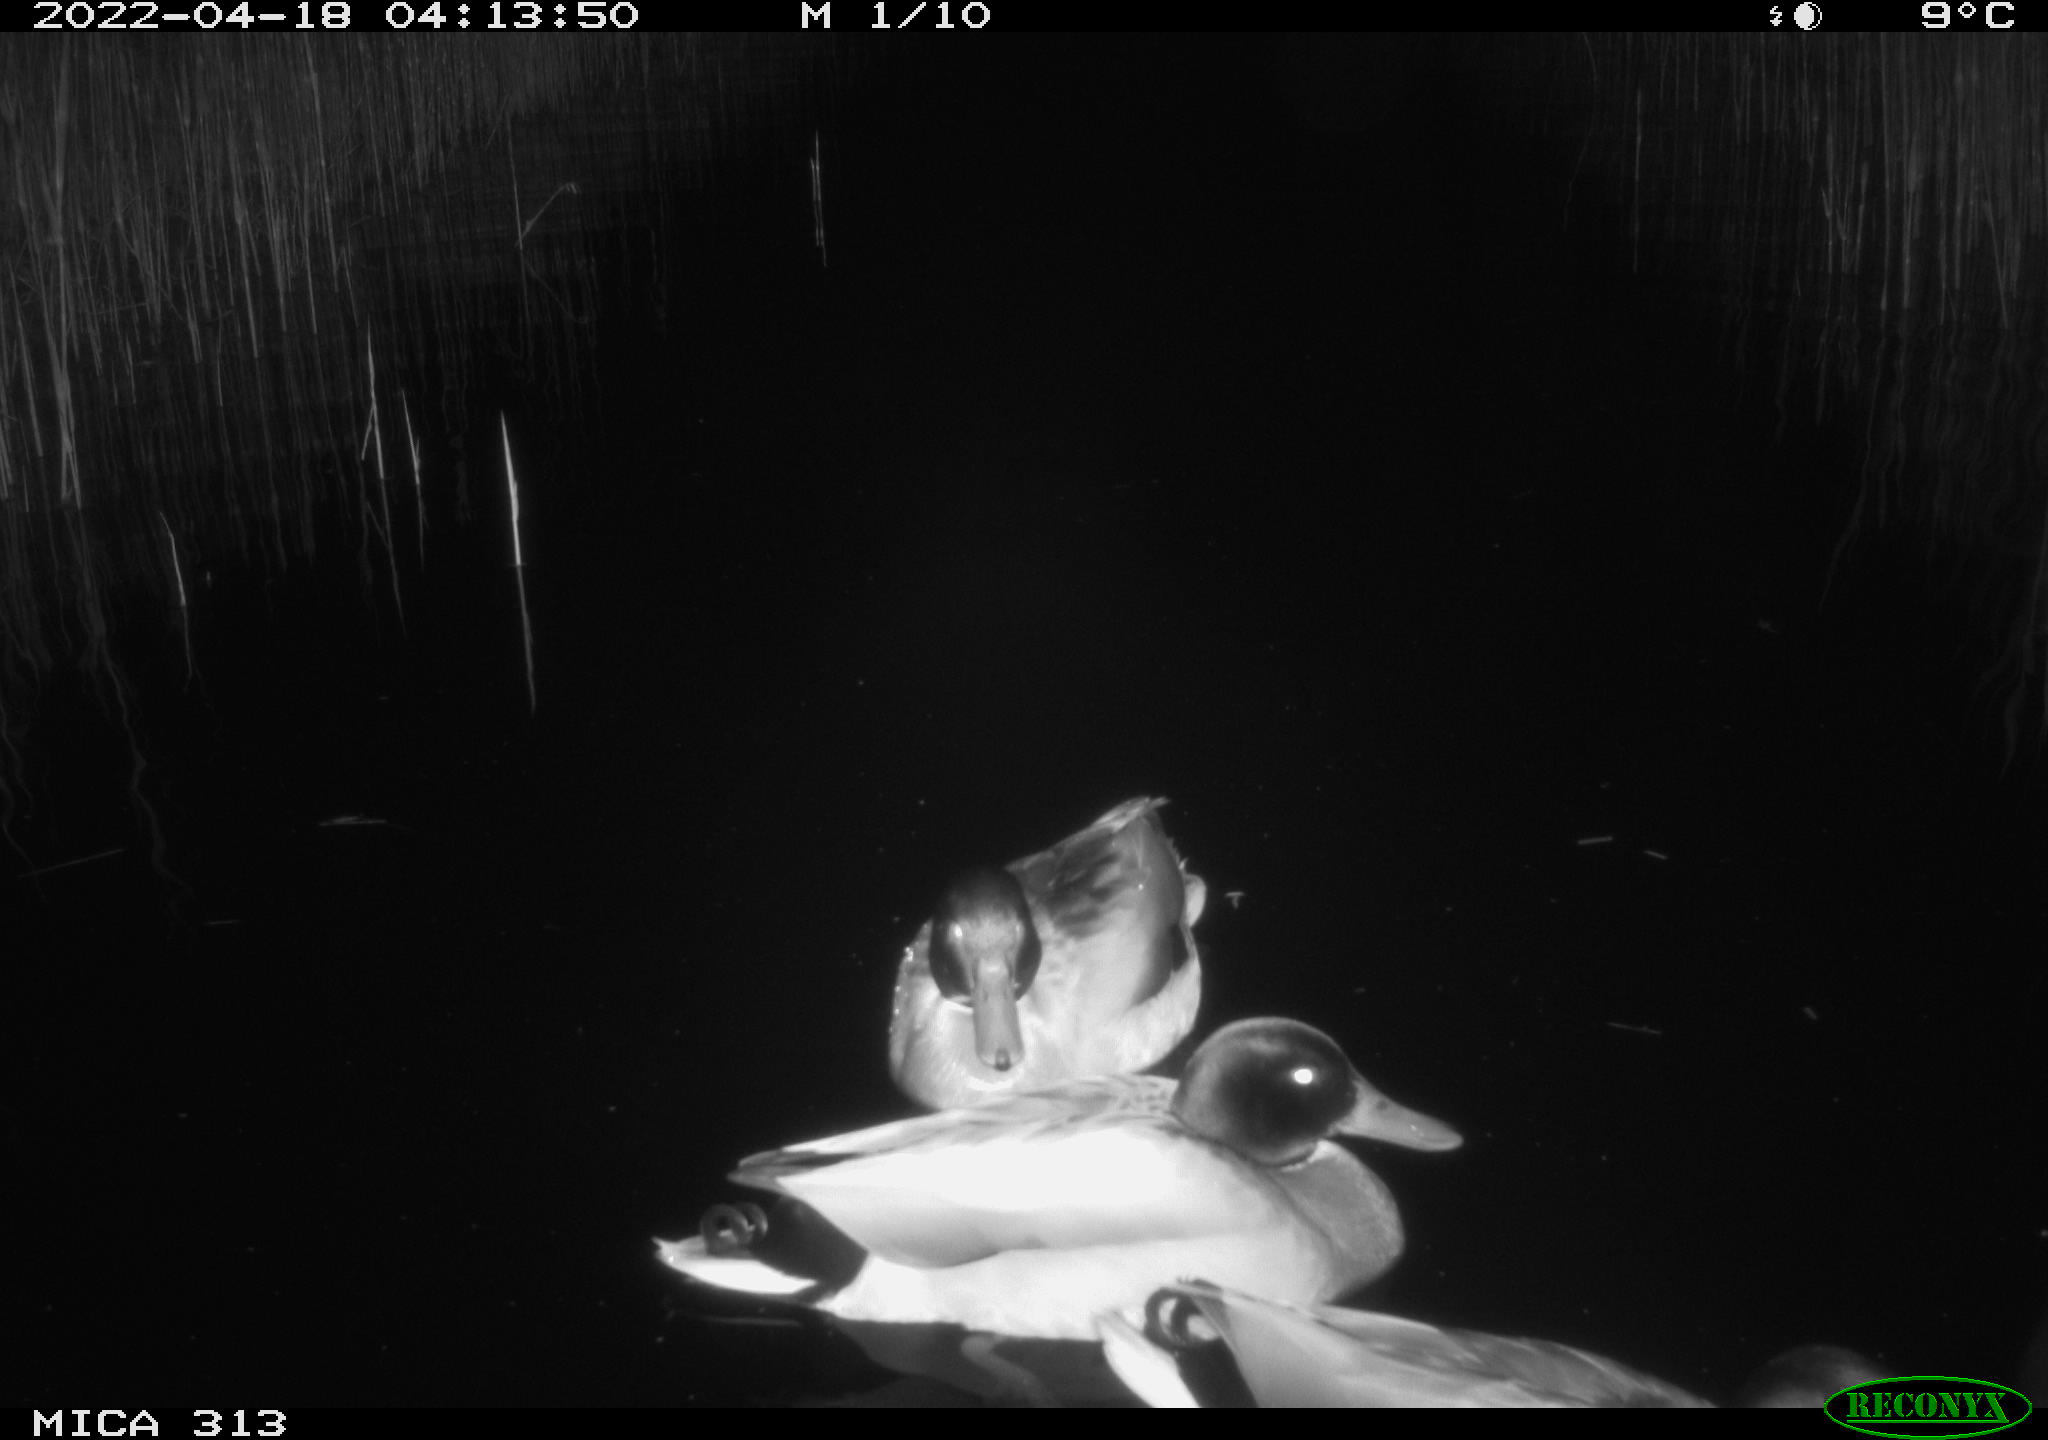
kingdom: Animalia
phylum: Chordata
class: Aves
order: Anseriformes
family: Anatidae
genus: Anas
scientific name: Anas platyrhynchos
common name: Mallard
